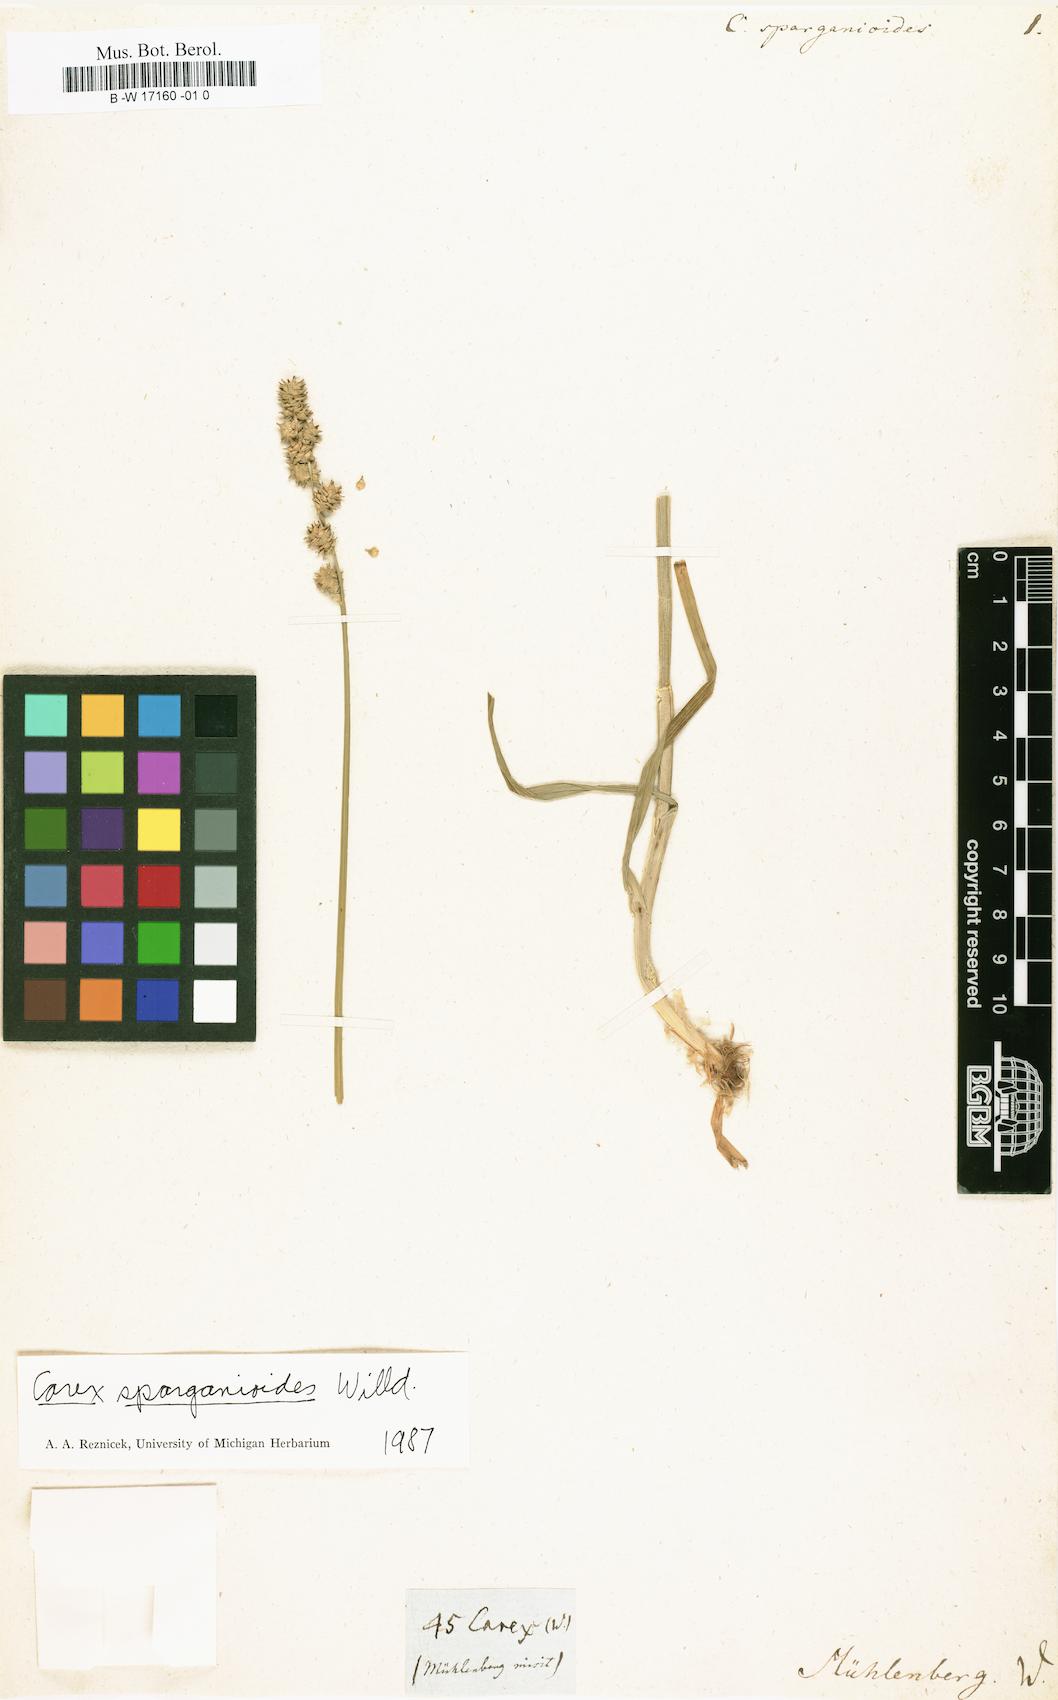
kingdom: Plantae
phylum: Tracheophyta
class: Liliopsida
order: Poales
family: Cyperaceae
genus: Carex
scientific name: Carex sparganioides
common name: Burreed sedge
